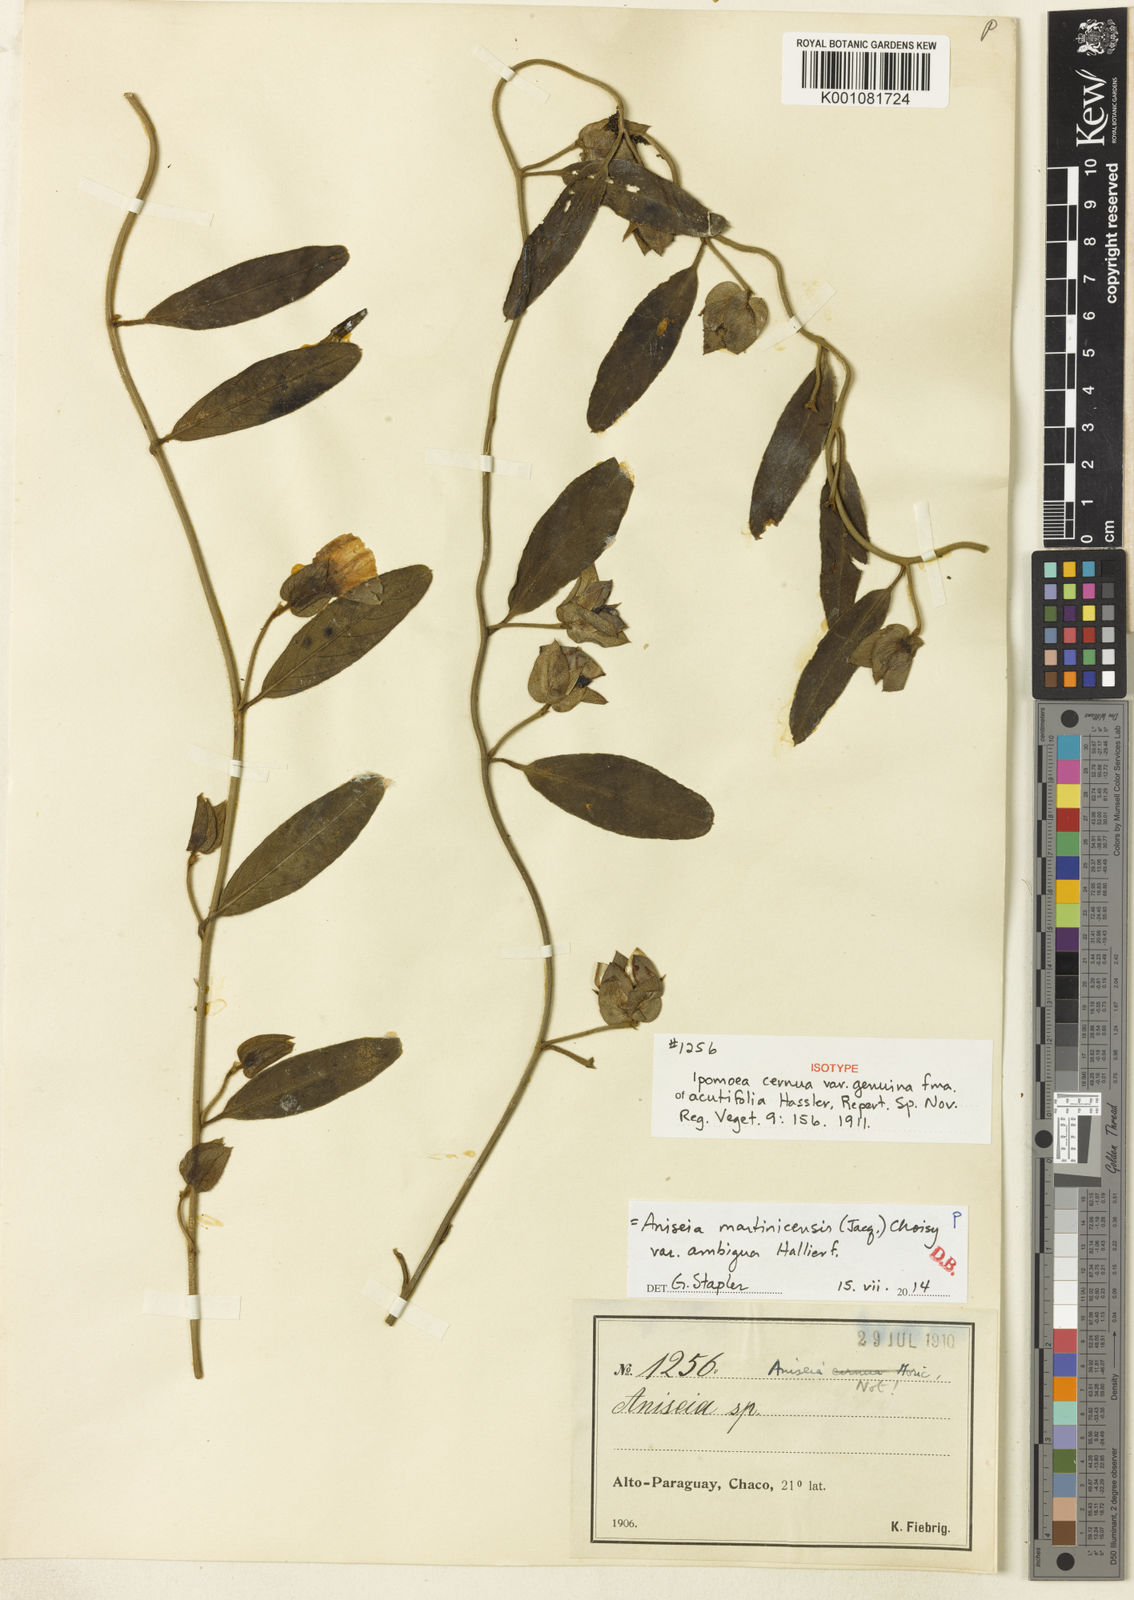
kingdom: Plantae
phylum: Tracheophyta
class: Magnoliopsida
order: Solanales
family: Convolvulaceae
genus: Aniseia
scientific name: Aniseia martinicensis
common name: Kulayadambu
